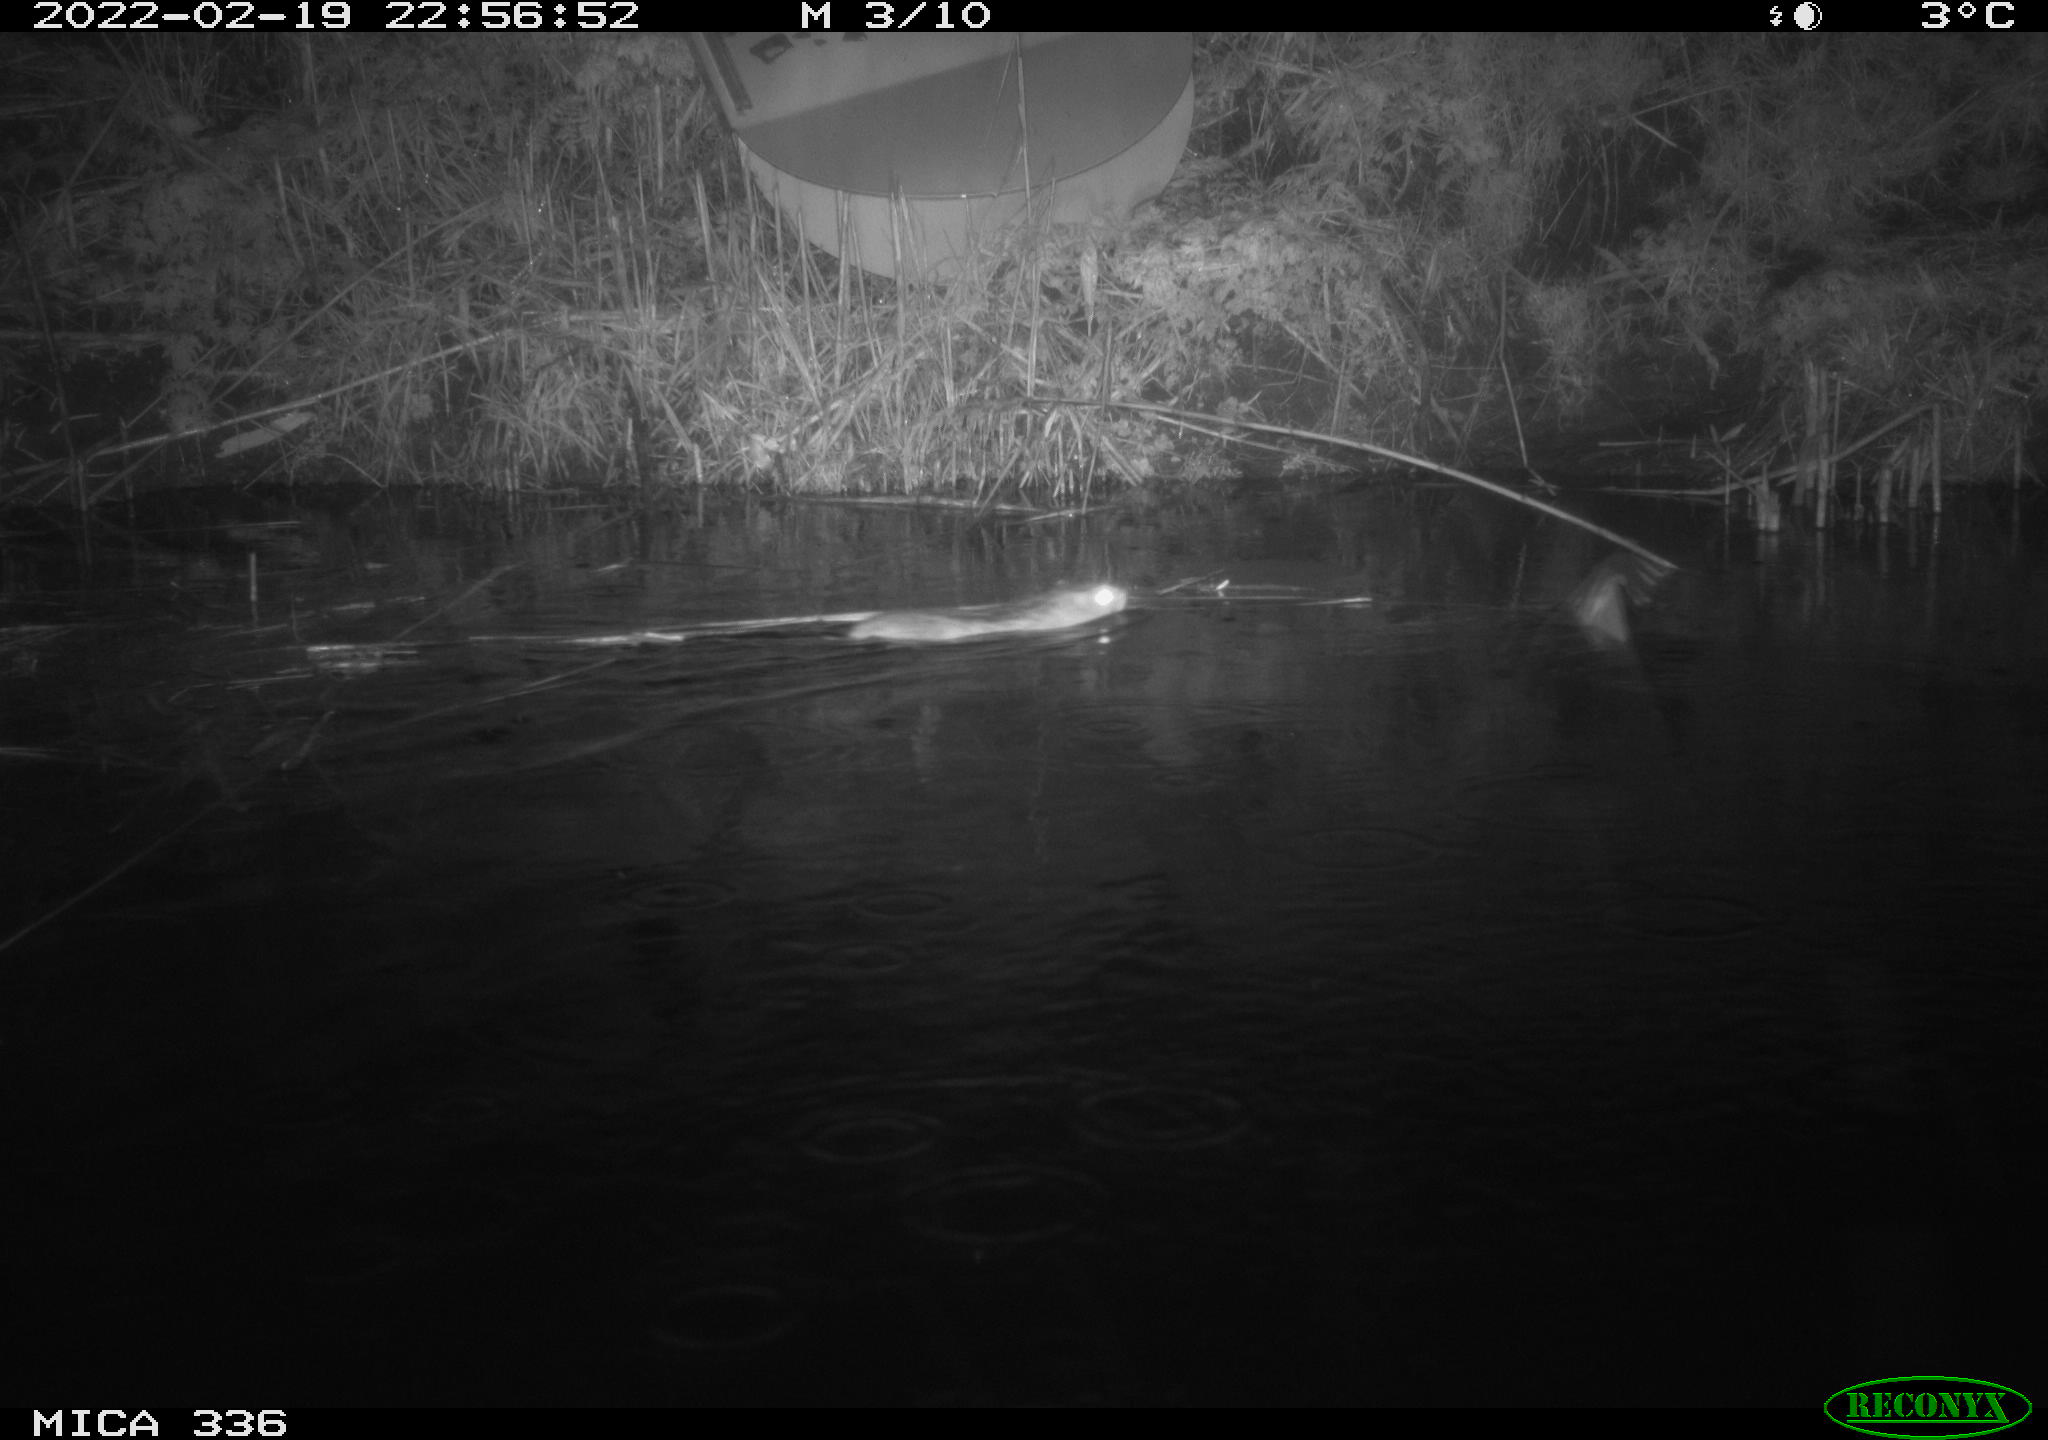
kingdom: Animalia
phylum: Chordata
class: Mammalia
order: Rodentia
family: Muridae
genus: Rattus
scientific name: Rattus norvegicus
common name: Brown rat
